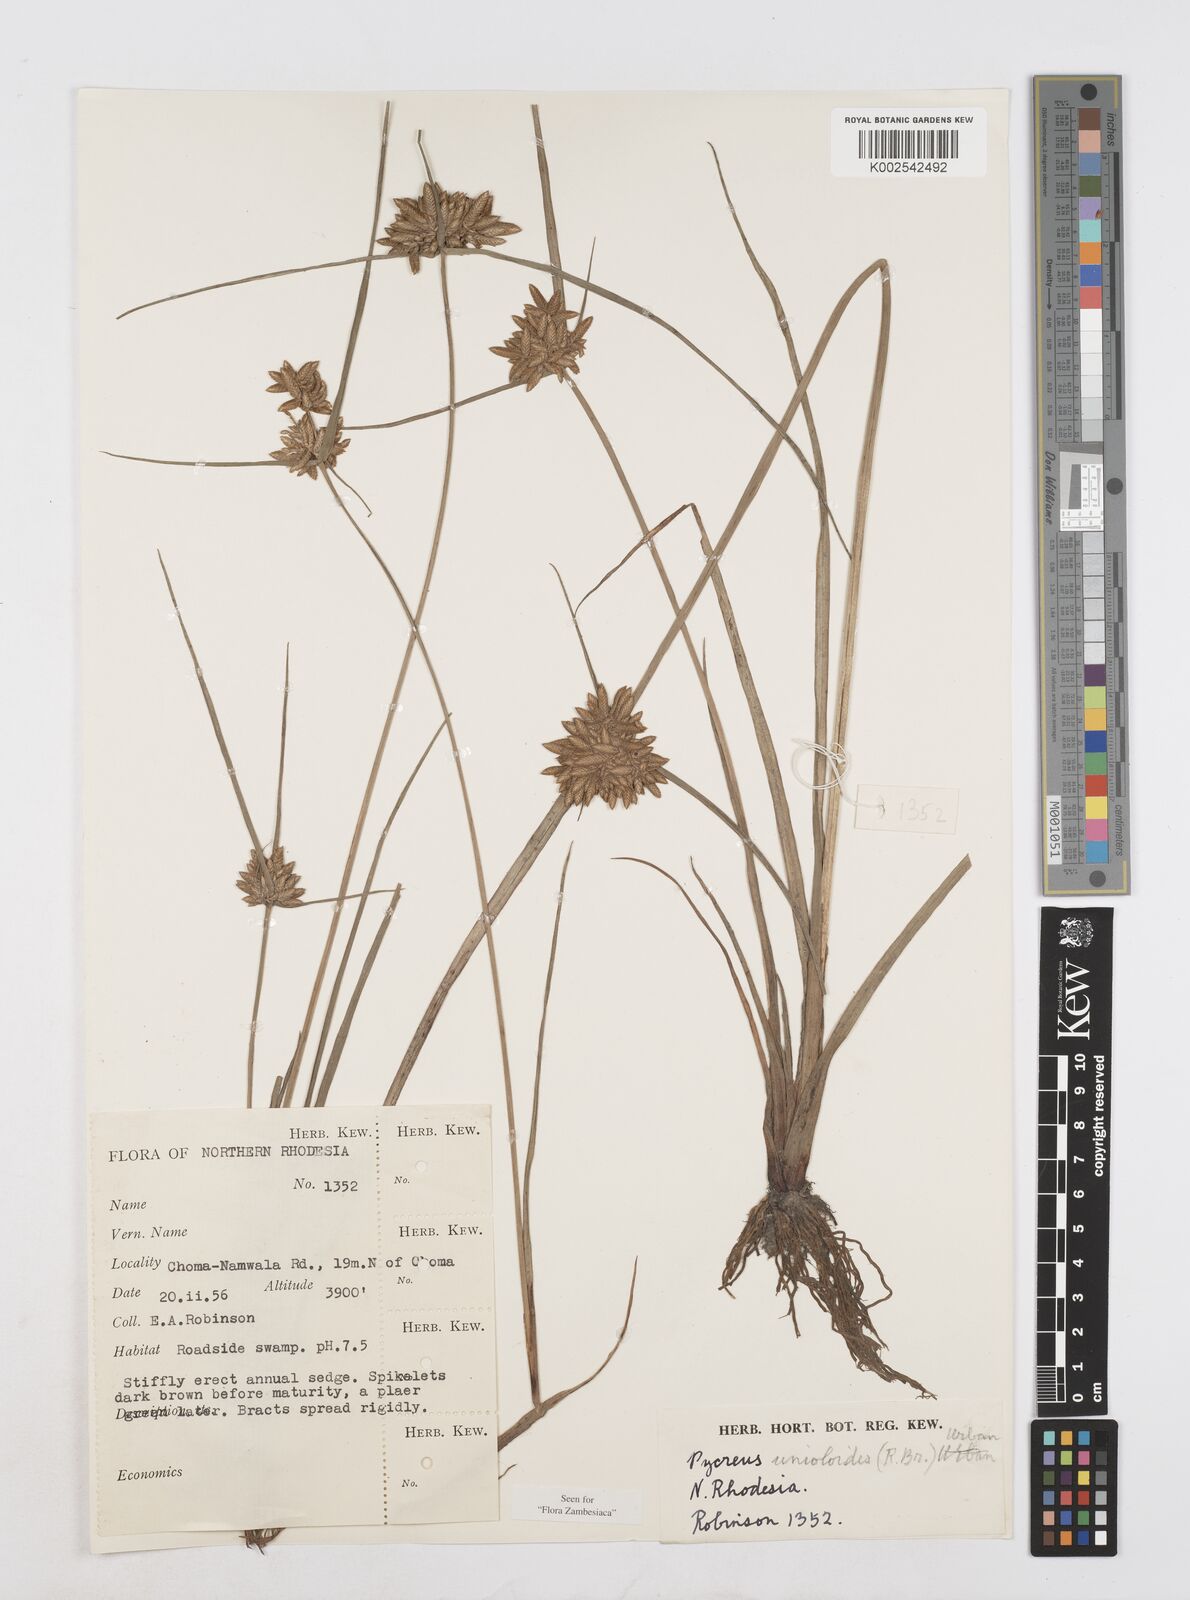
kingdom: Plantae
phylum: Tracheophyta
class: Liliopsida
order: Poales
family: Cyperaceae
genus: Cyperus
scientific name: Cyperus unioloides
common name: Uniola flatsedge
